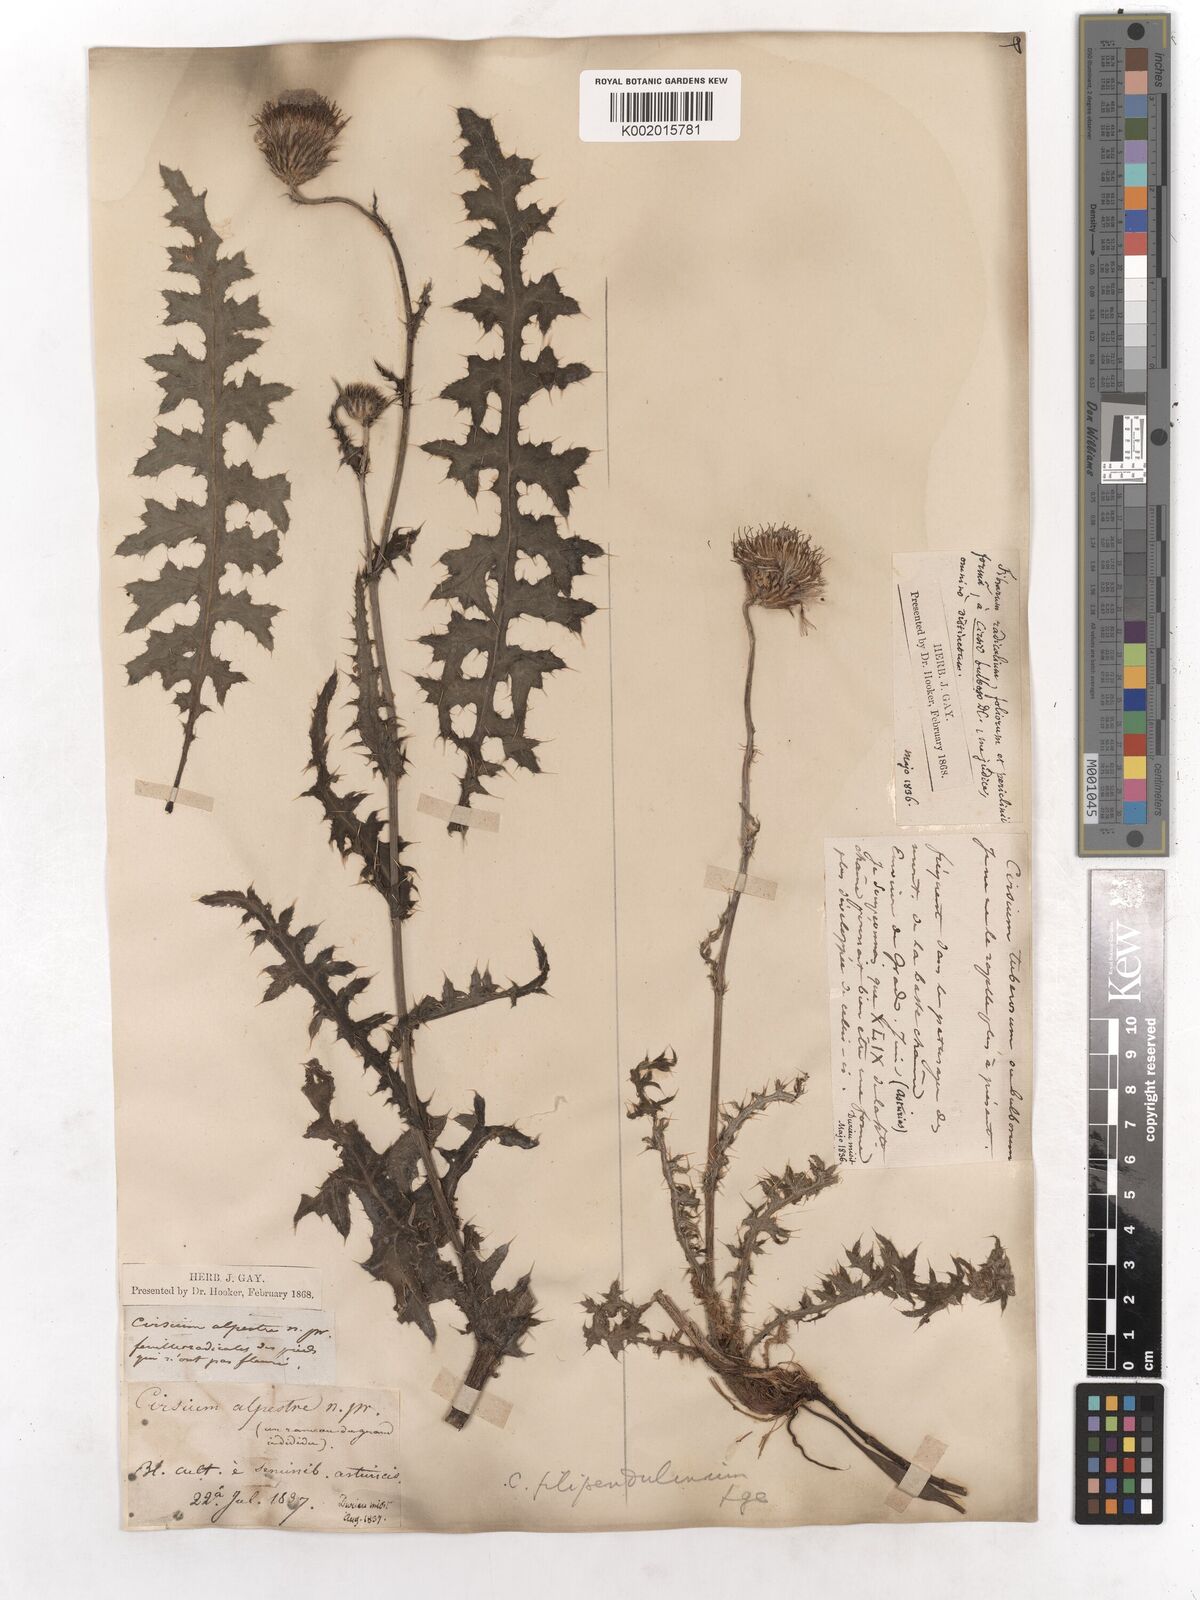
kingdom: Plantae
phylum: Tracheophyta
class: Magnoliopsida
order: Asterales
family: Asteraceae
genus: Cirsium
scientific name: Cirsium tuberosum
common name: Tuberous thistle
